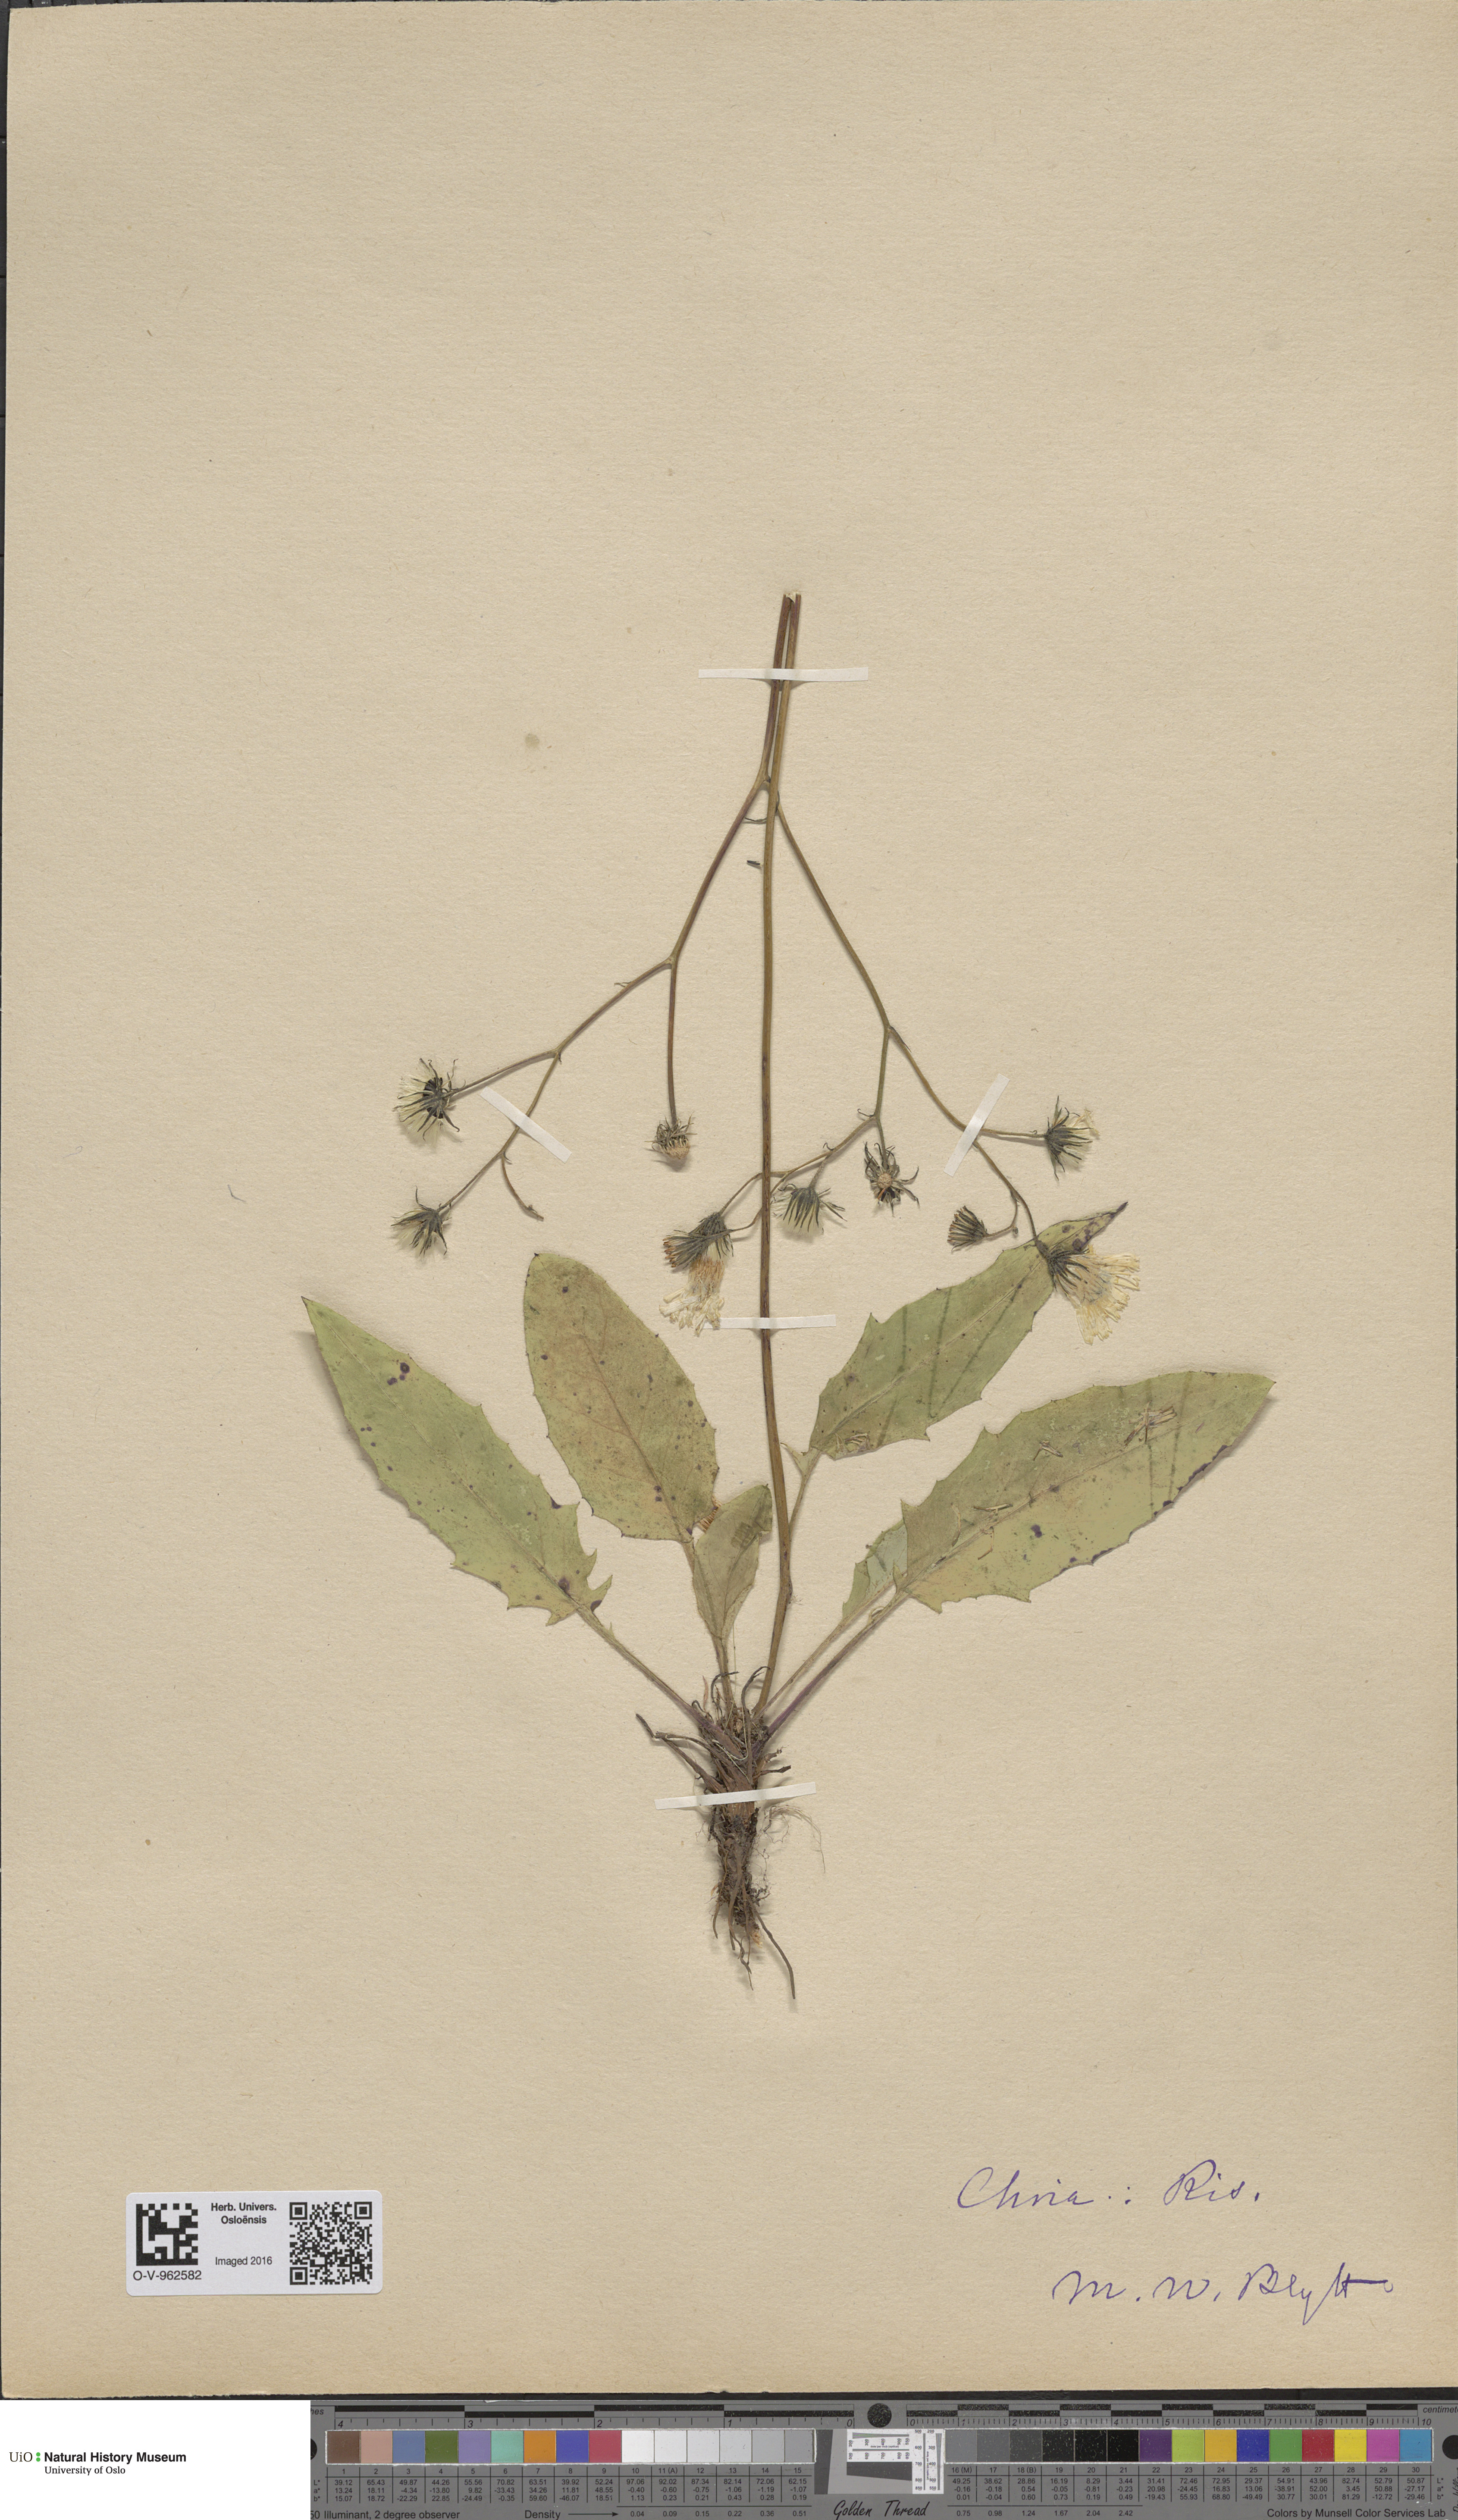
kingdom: Plantae
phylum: Tracheophyta
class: Magnoliopsida
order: Asterales
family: Asteraceae
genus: Hieracium
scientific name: Hieracium
